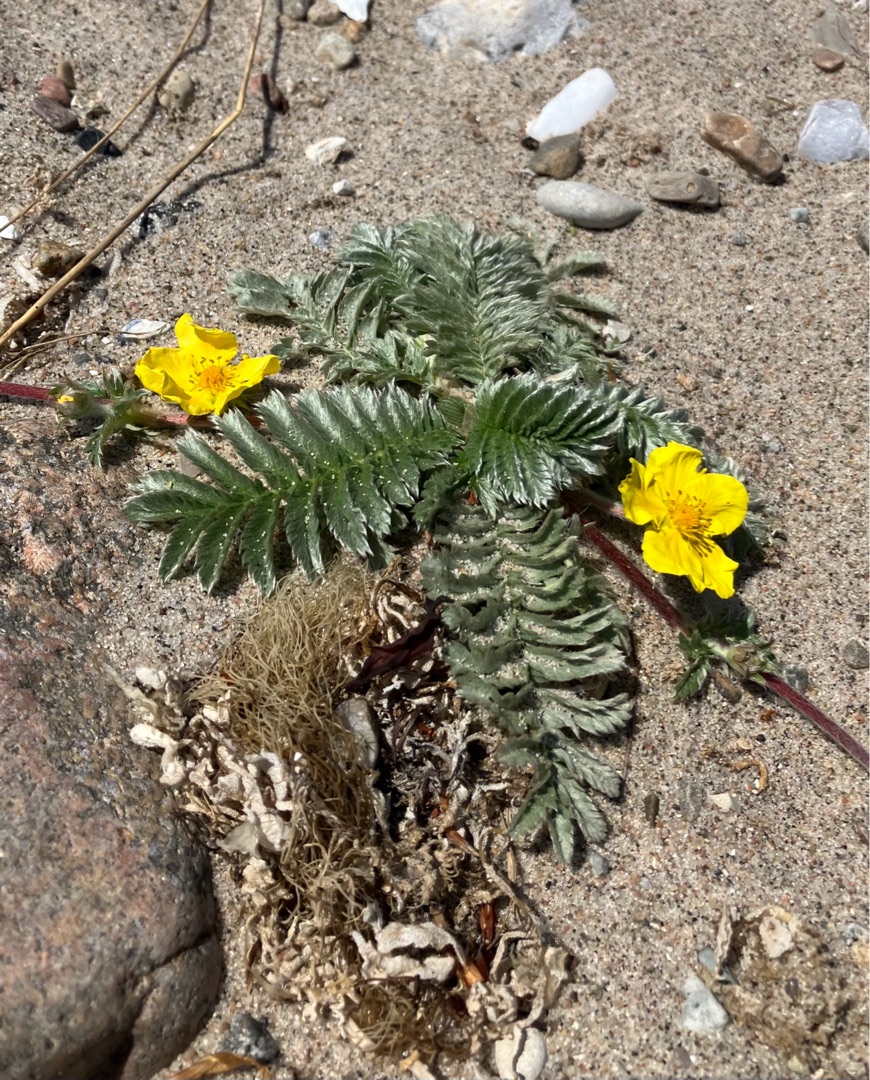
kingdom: Plantae
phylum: Tracheophyta
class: Magnoliopsida
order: Rosales
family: Rosaceae
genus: Argentina
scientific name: Argentina anserina
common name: Gåsepotentil
